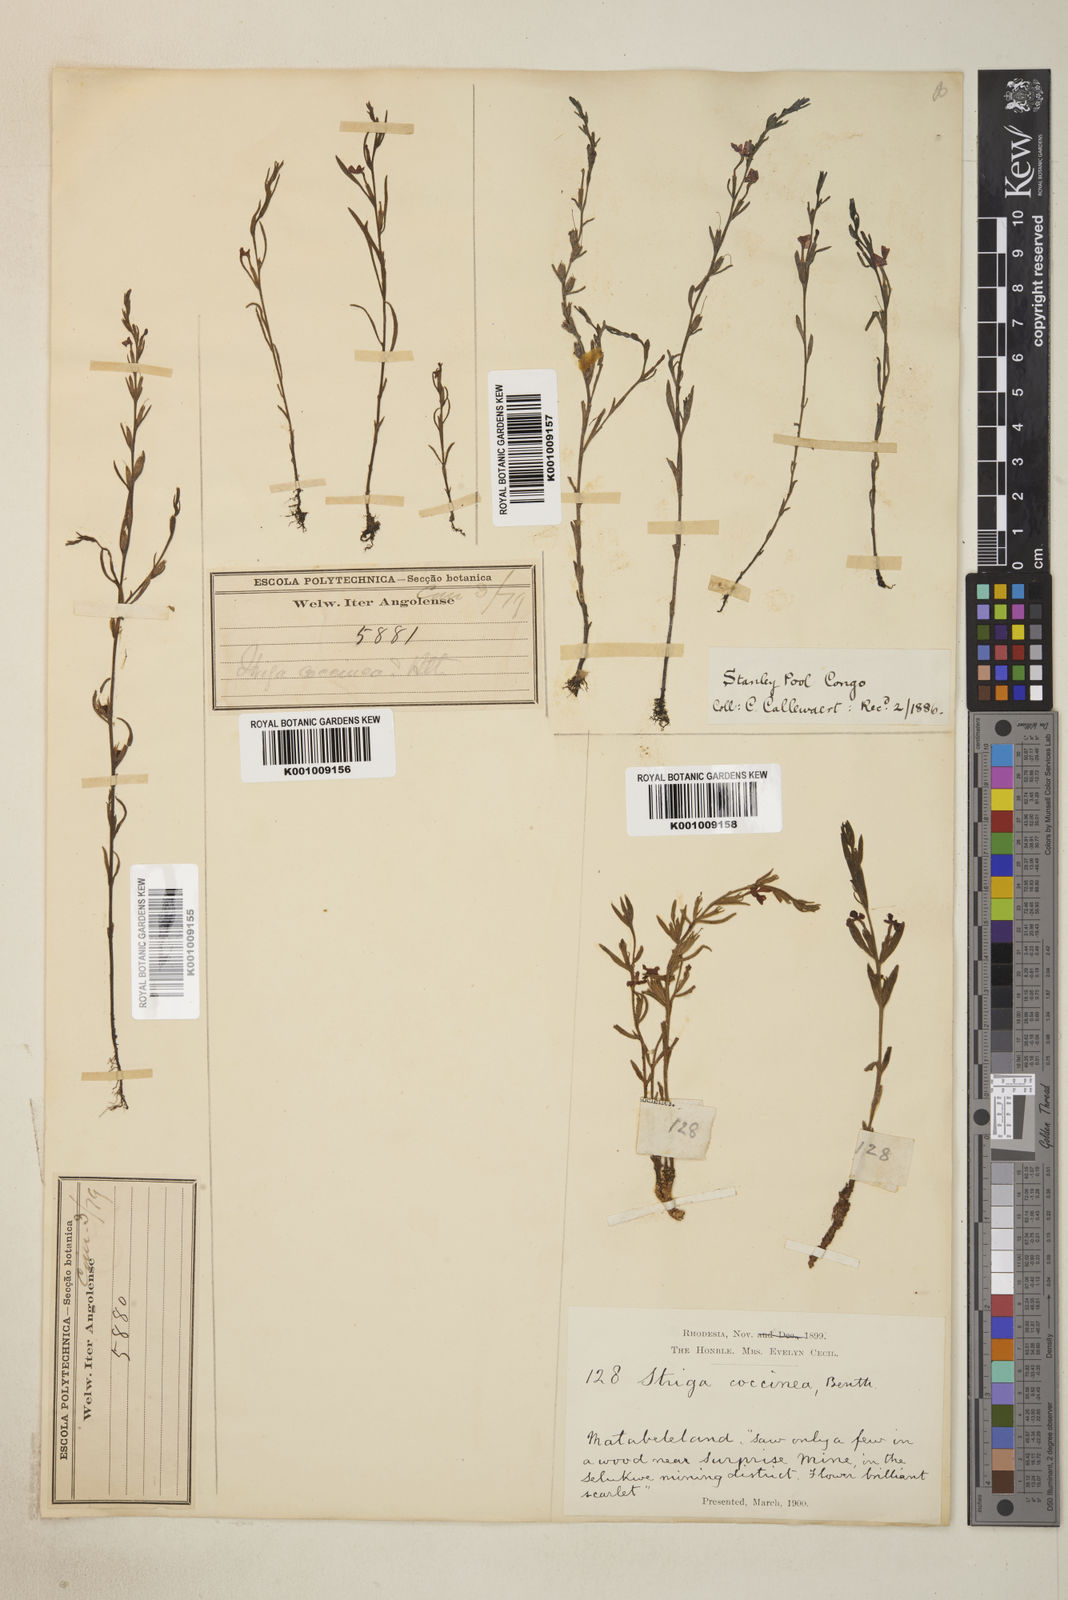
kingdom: Plantae
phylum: Tracheophyta
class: Magnoliopsida
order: Lamiales
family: Orobanchaceae
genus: Striga
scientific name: Striga asiatica
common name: Asiatic witchweed
